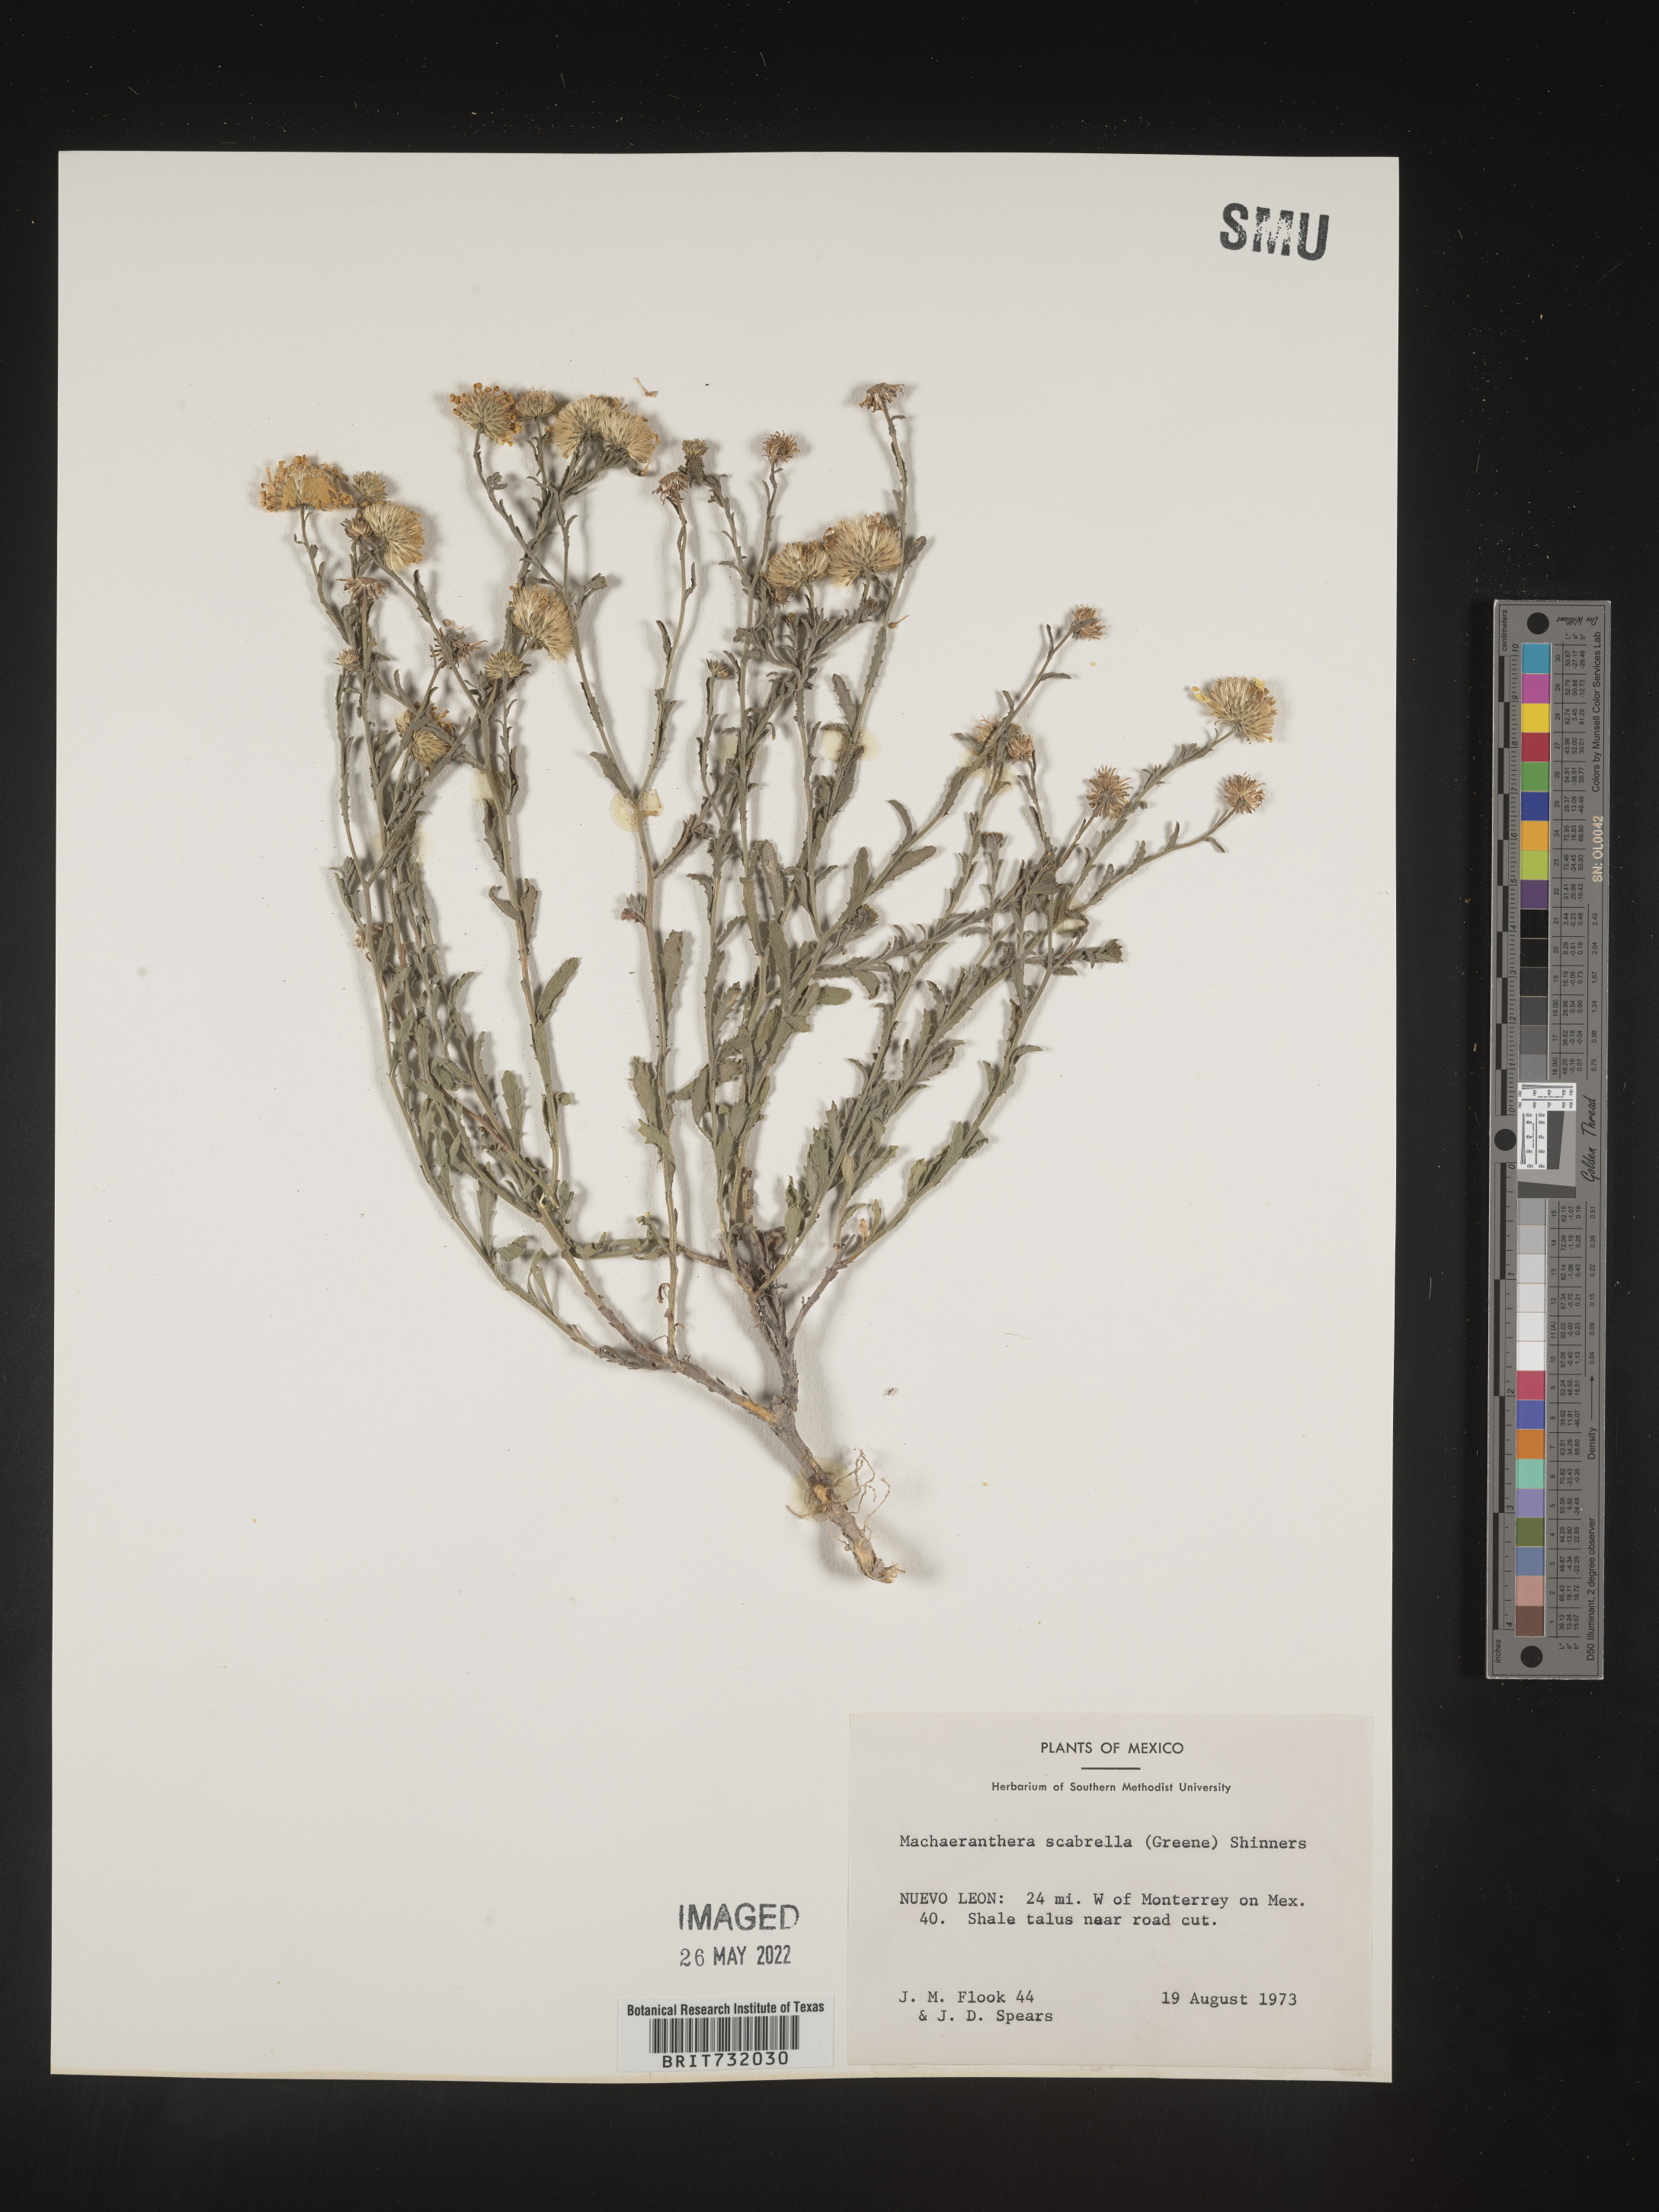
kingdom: Plantae
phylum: Tracheophyta
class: Magnoliopsida
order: Asterales
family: Asteraceae
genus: Xanthisma
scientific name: Xanthisma scabrellum
